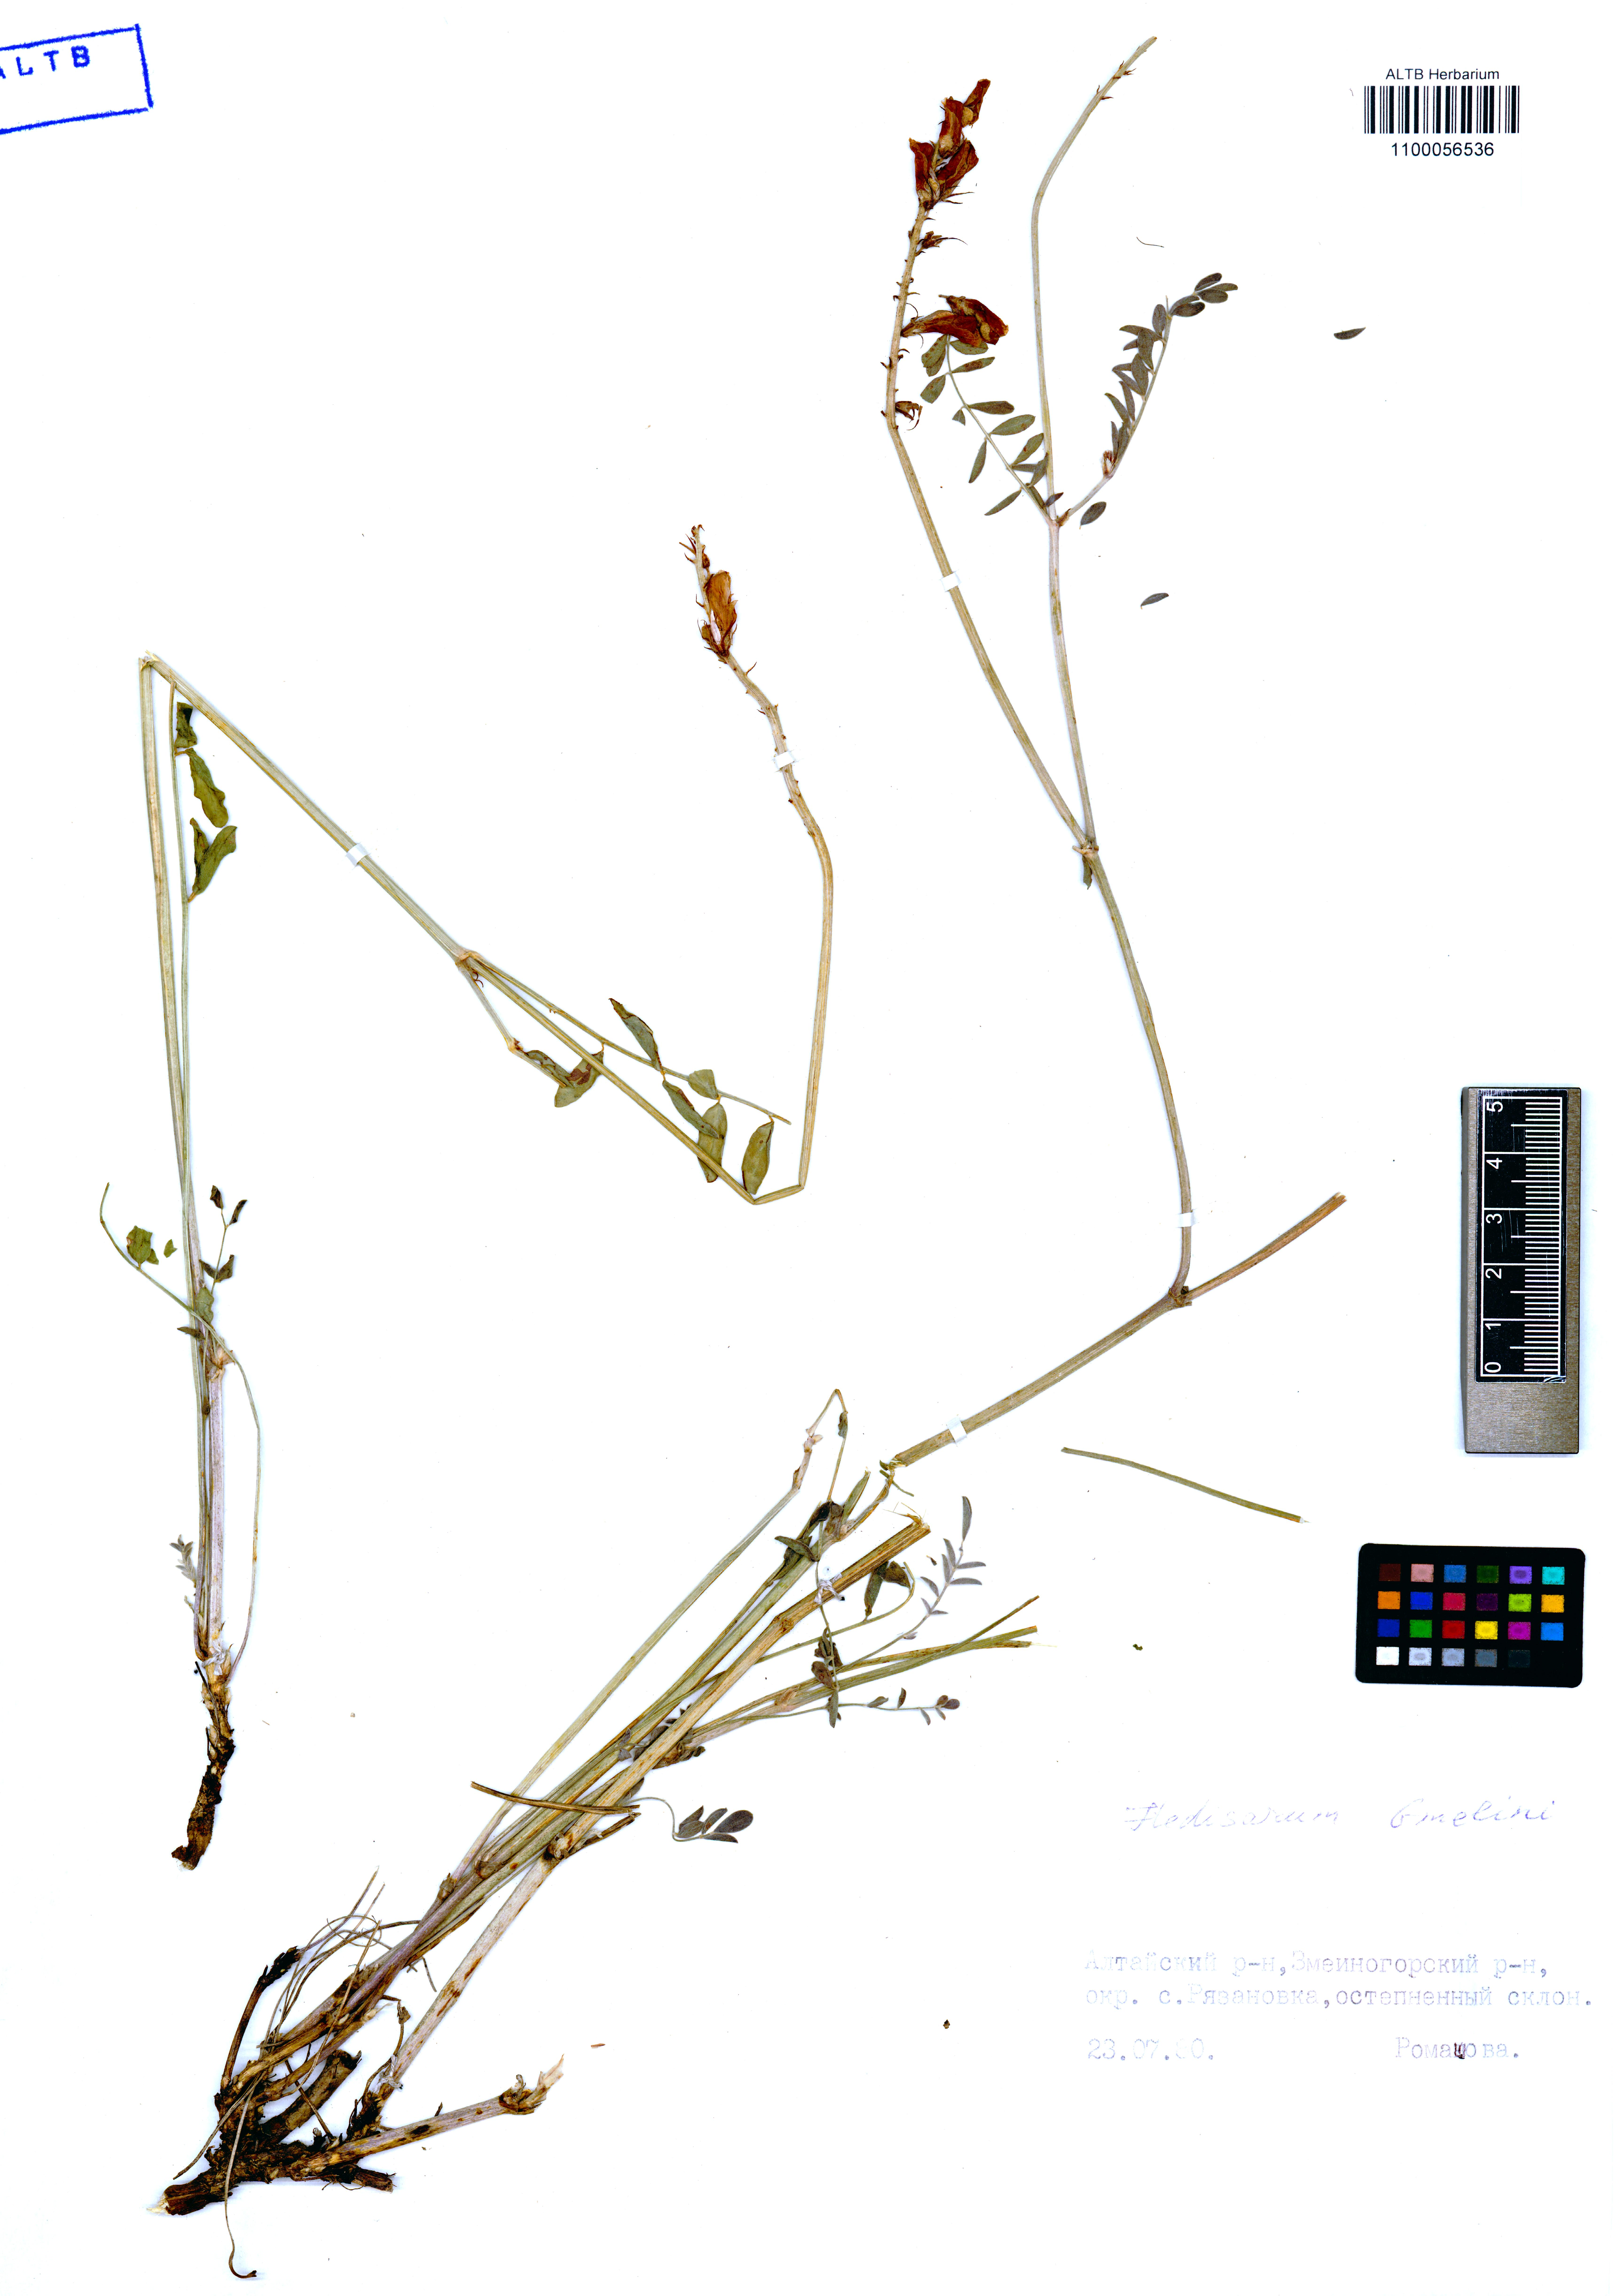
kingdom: Plantae
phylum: Tracheophyta
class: Magnoliopsida
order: Fabales
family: Fabaceae
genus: Hedysarum
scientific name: Hedysarum gmelinii
